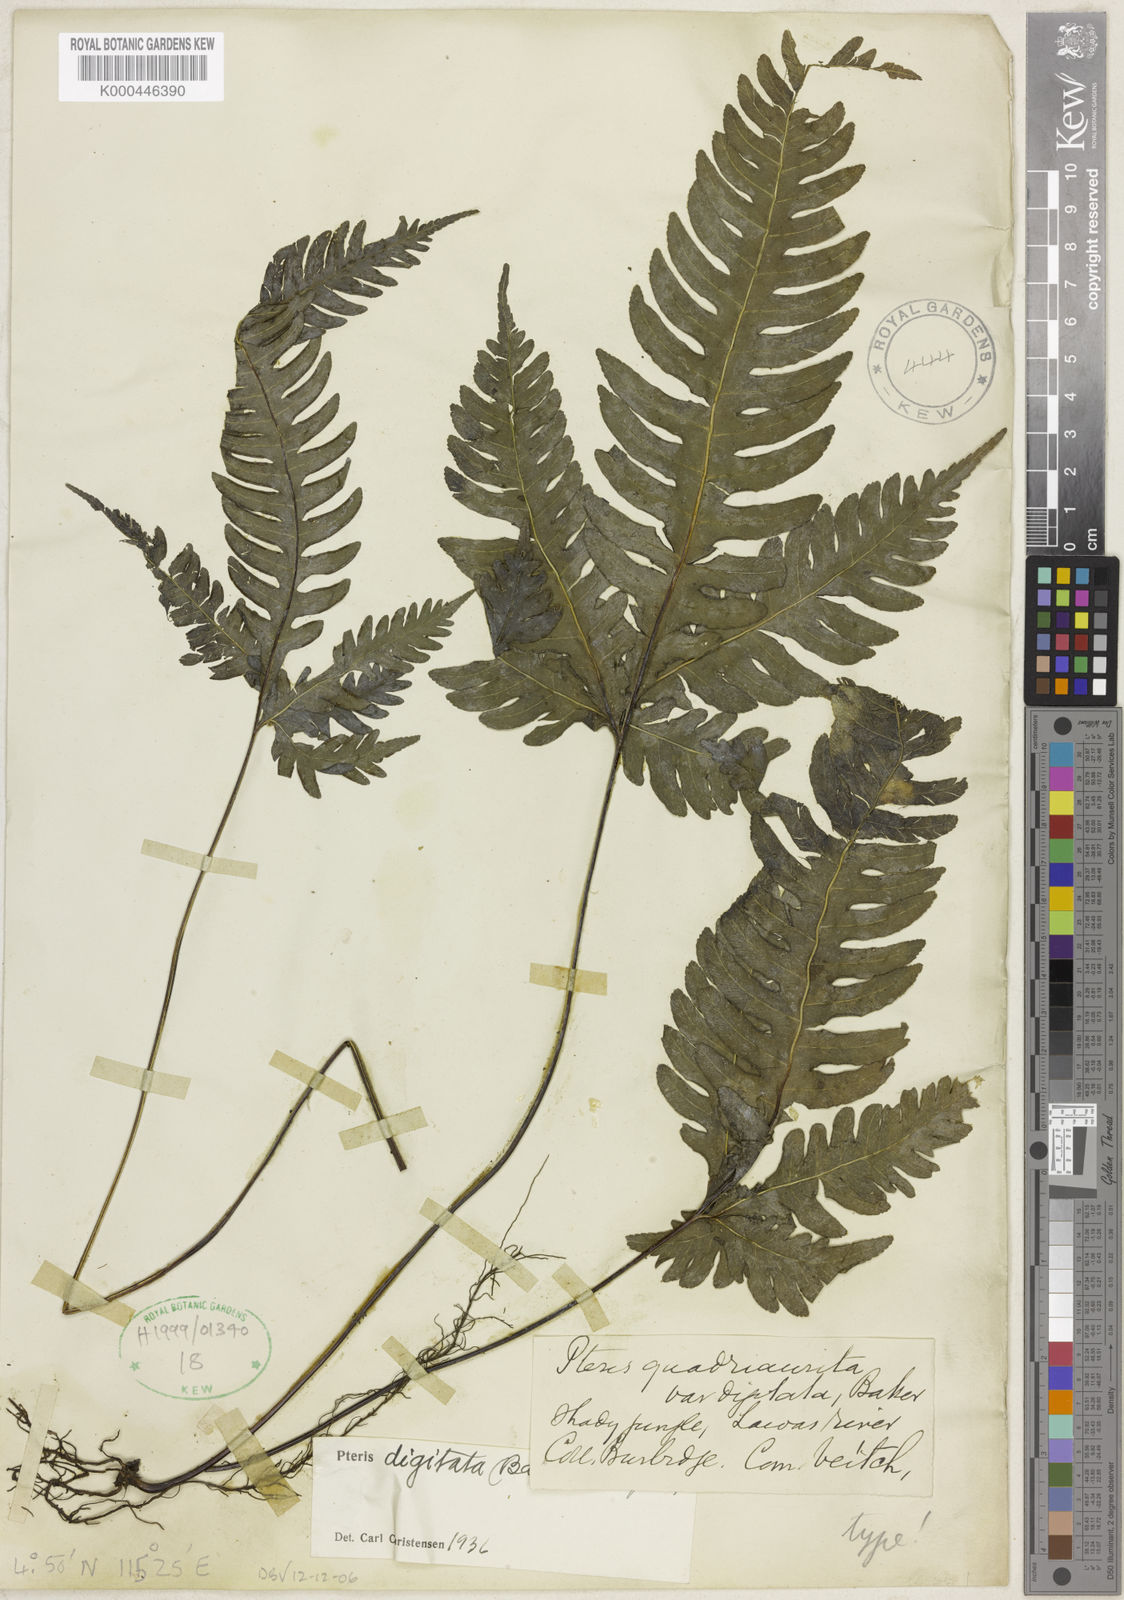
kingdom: Plantae
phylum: Tracheophyta
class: Polypodiopsida
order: Polypodiales
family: Pteridaceae
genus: Pteris
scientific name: Pteris grevilleana
